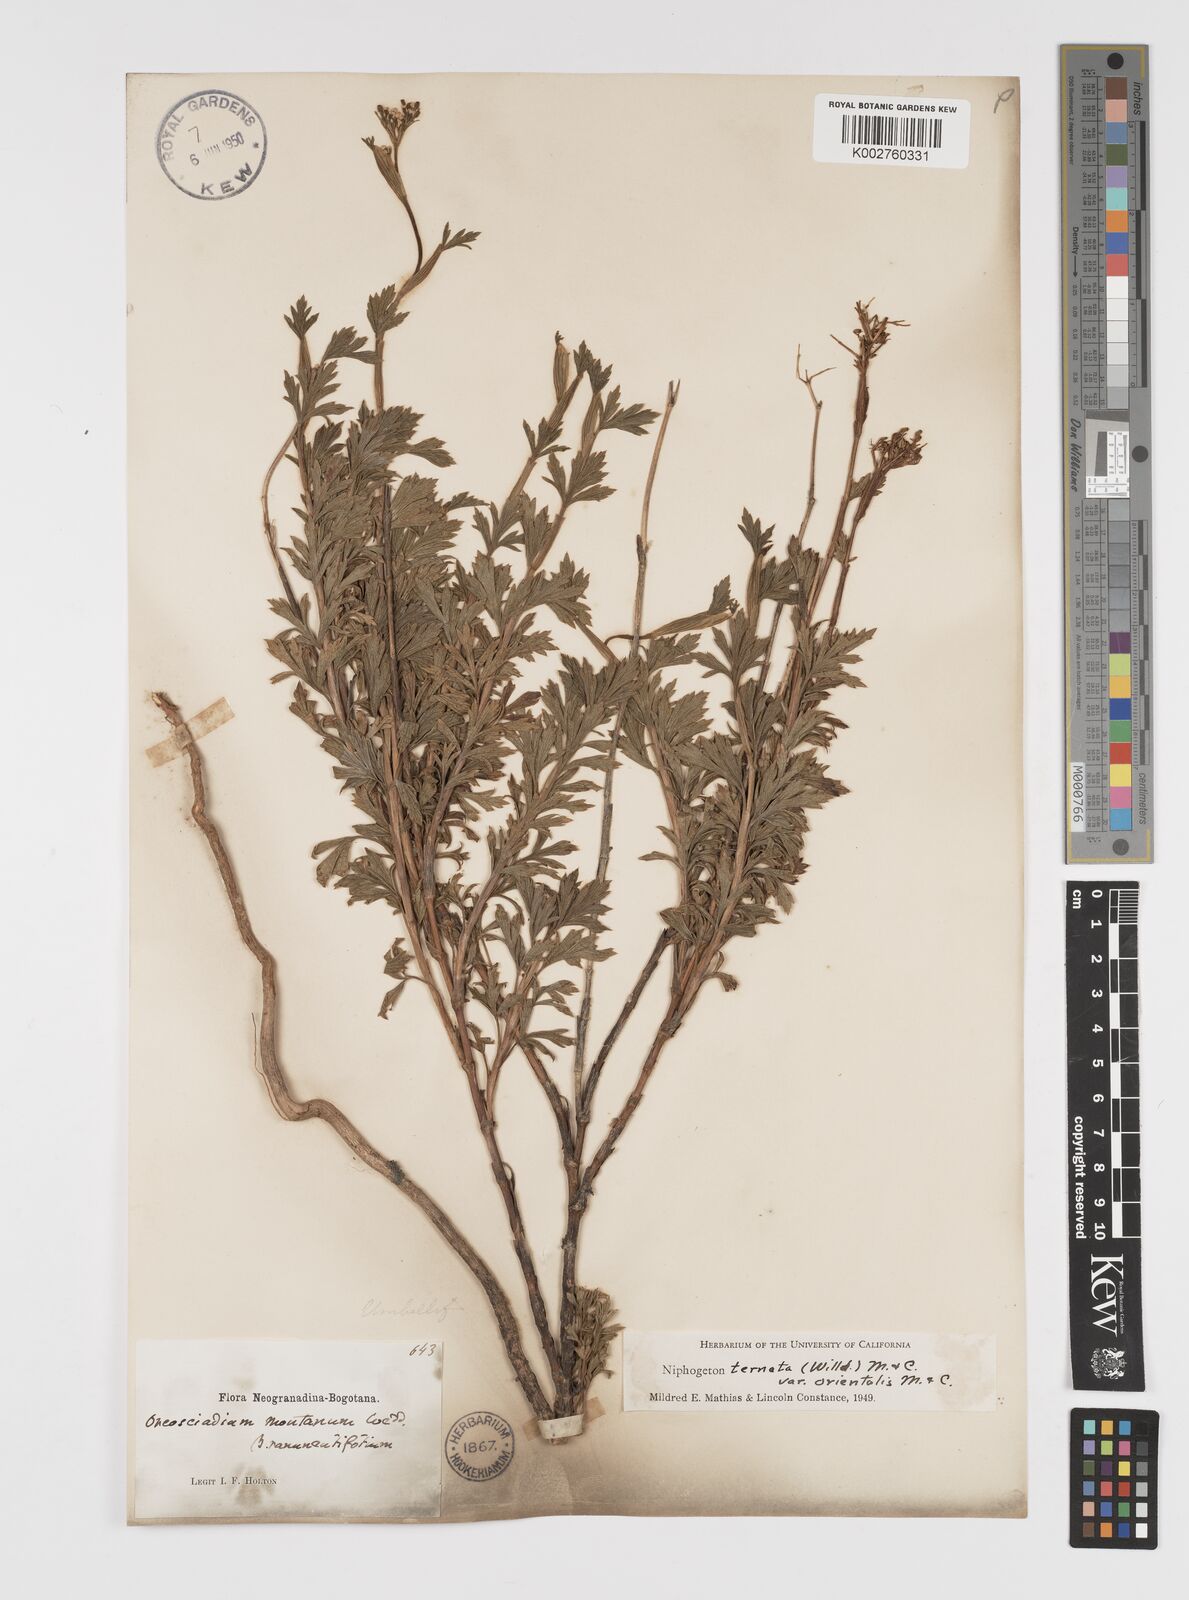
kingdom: Plantae
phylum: Tracheophyta
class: Magnoliopsida
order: Apiales
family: Apiaceae
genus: Niphogeton
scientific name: Niphogeton ternata
